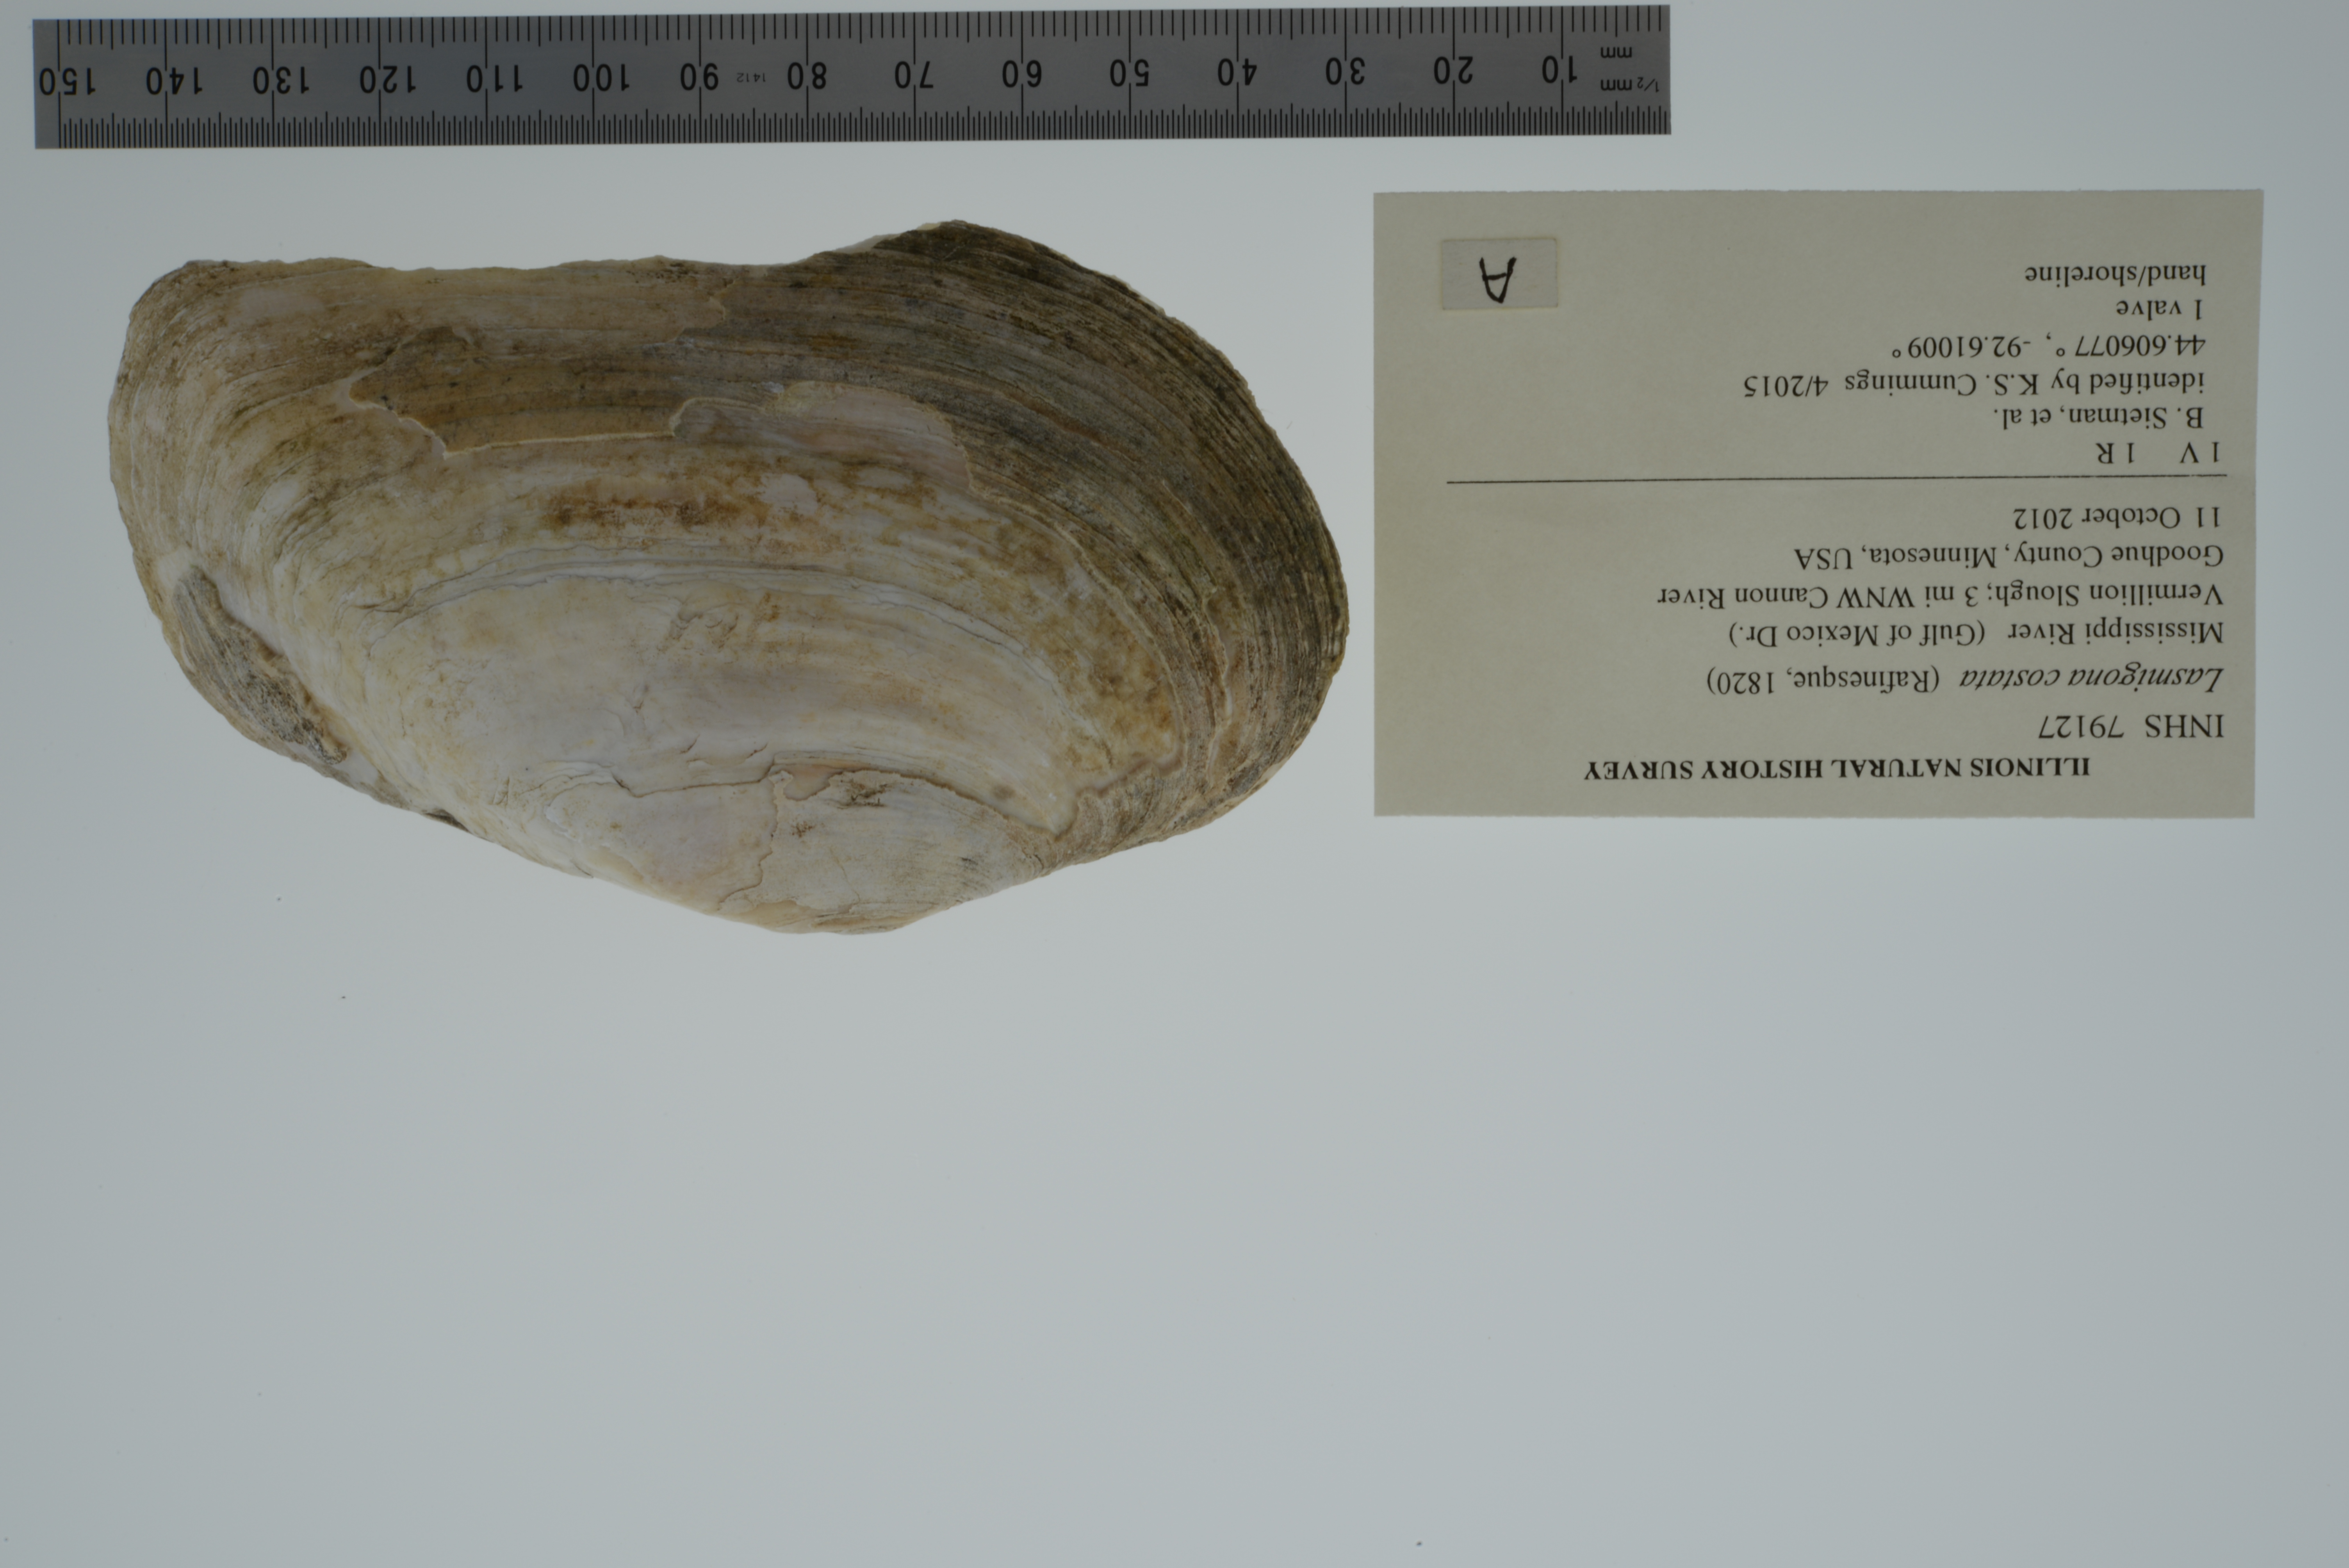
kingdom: Animalia
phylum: Mollusca
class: Bivalvia
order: Unionida
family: Unionidae
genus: Lasmigona
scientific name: Lasmigona costata
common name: Flutedshell
